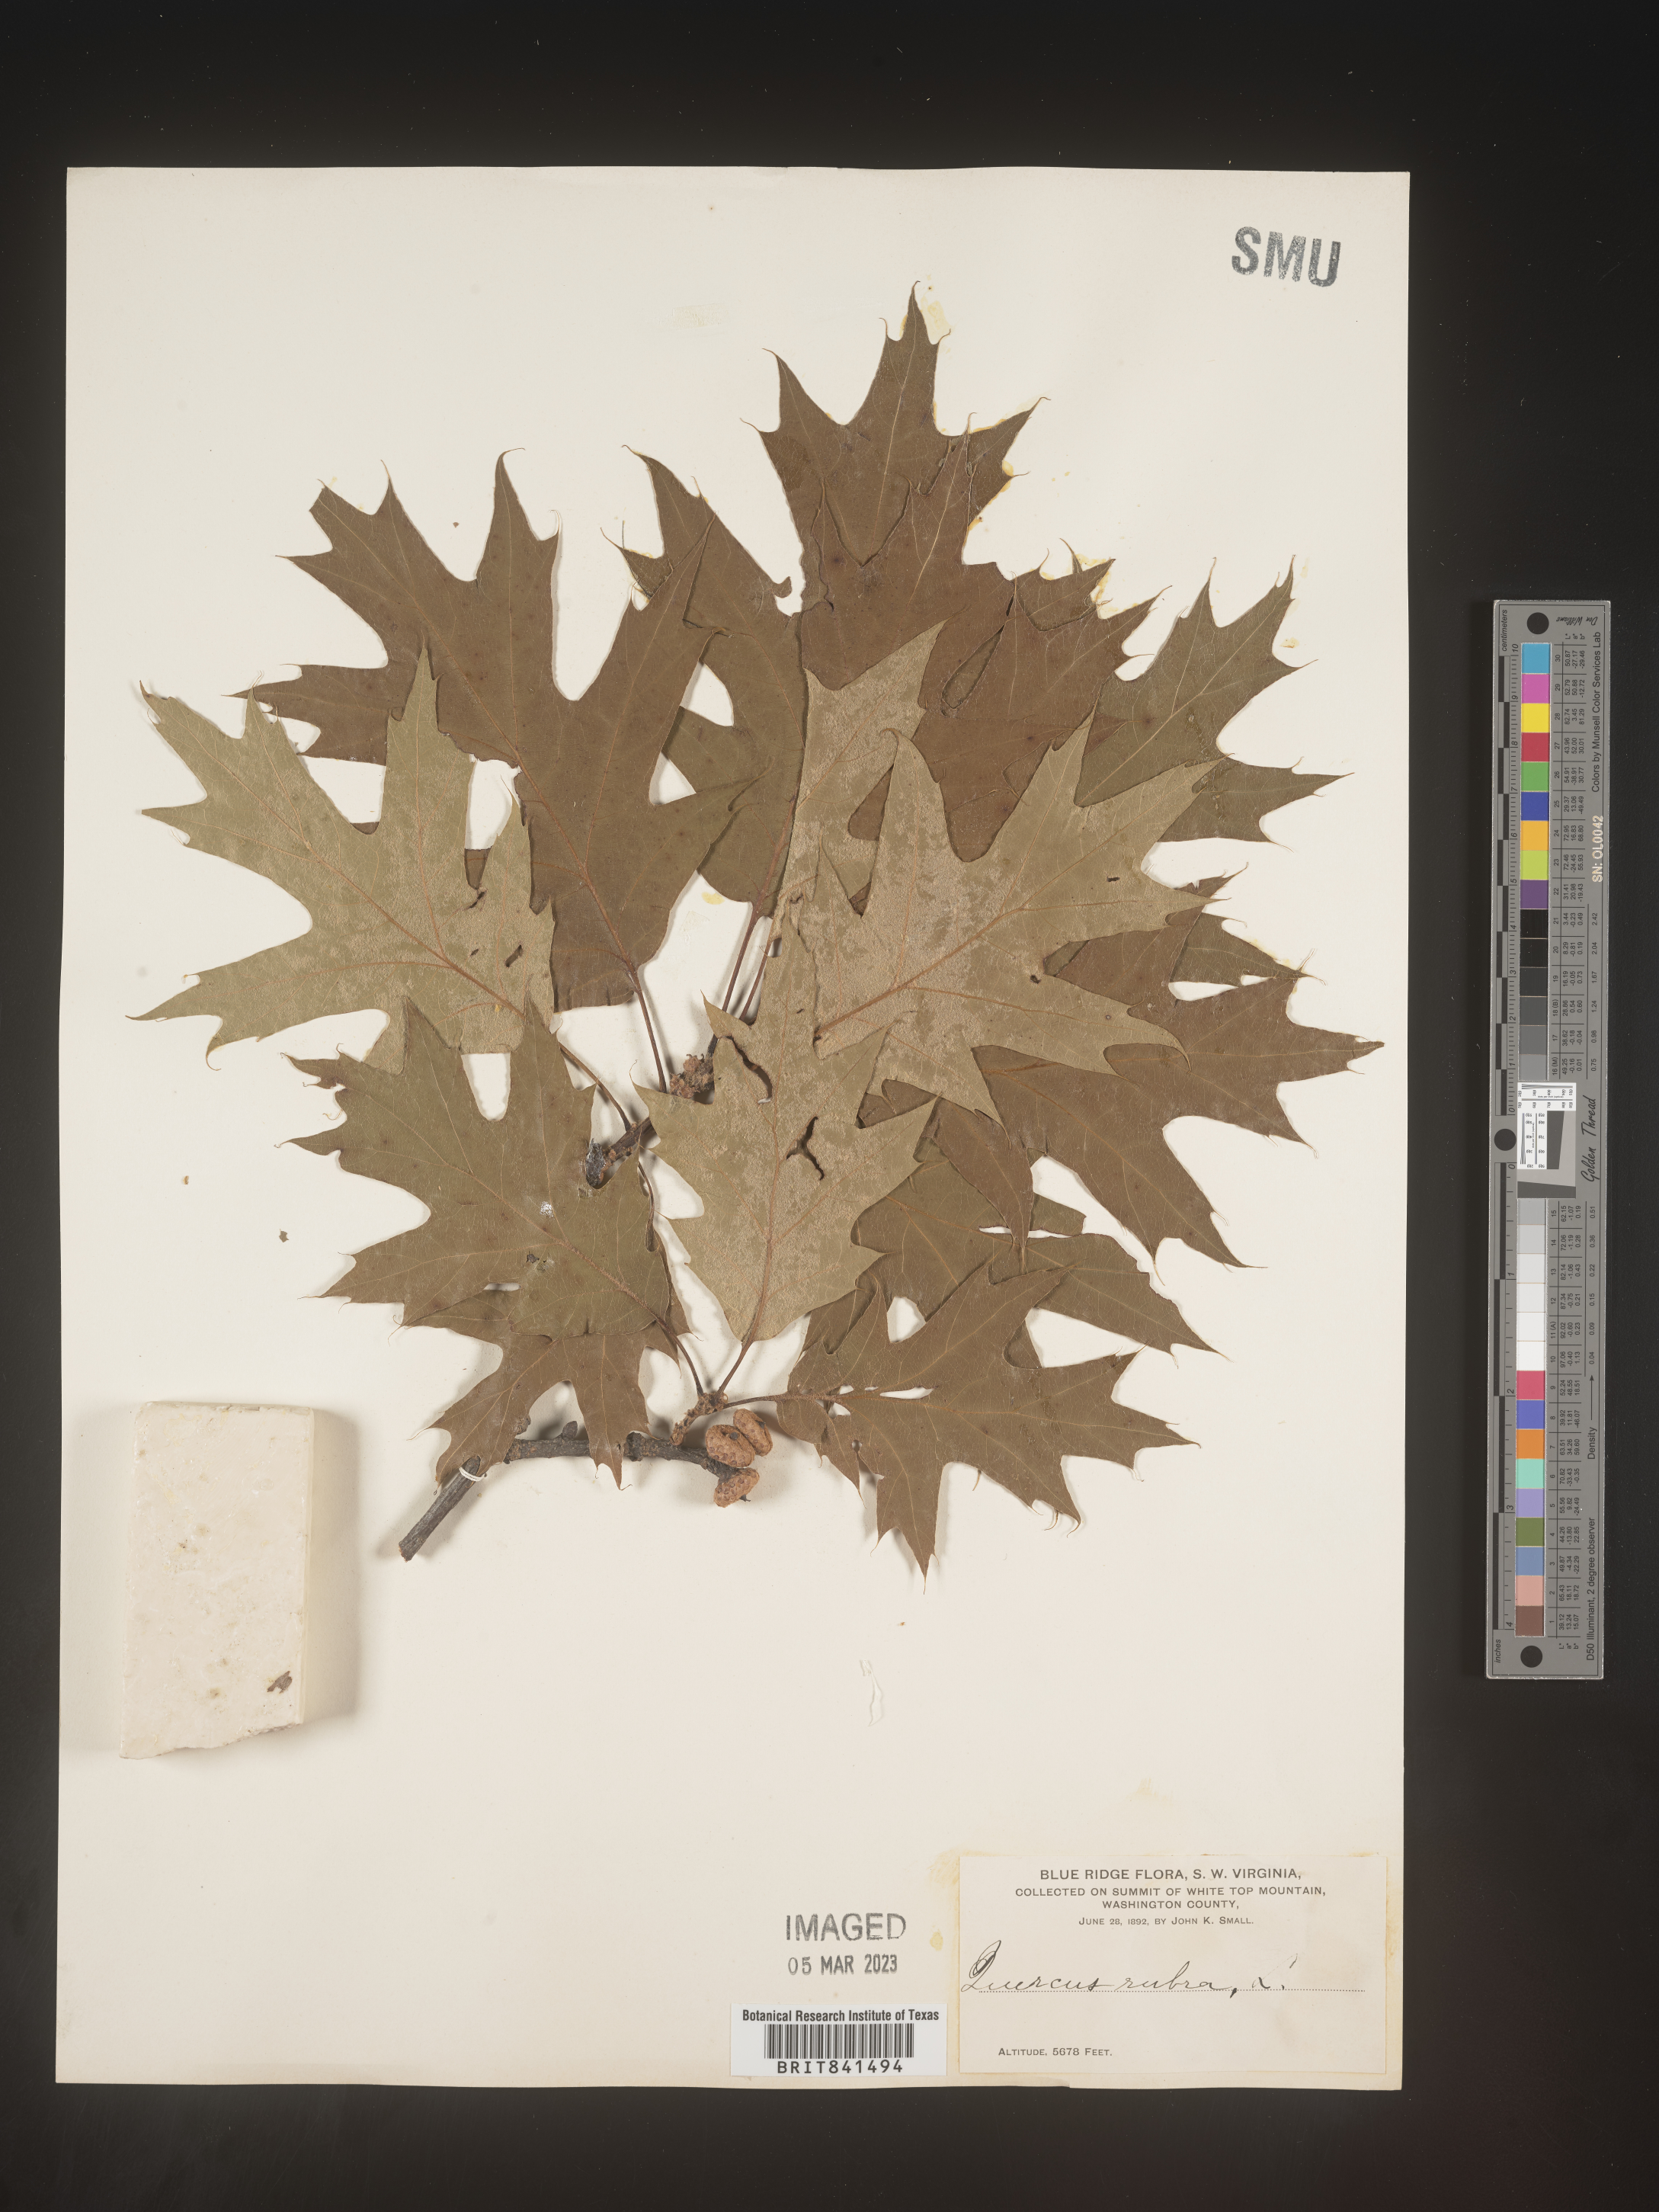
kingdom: Plantae
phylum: Tracheophyta
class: Magnoliopsida
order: Fagales
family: Fagaceae
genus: Quercus
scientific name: Quercus rubra
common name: Red oak
